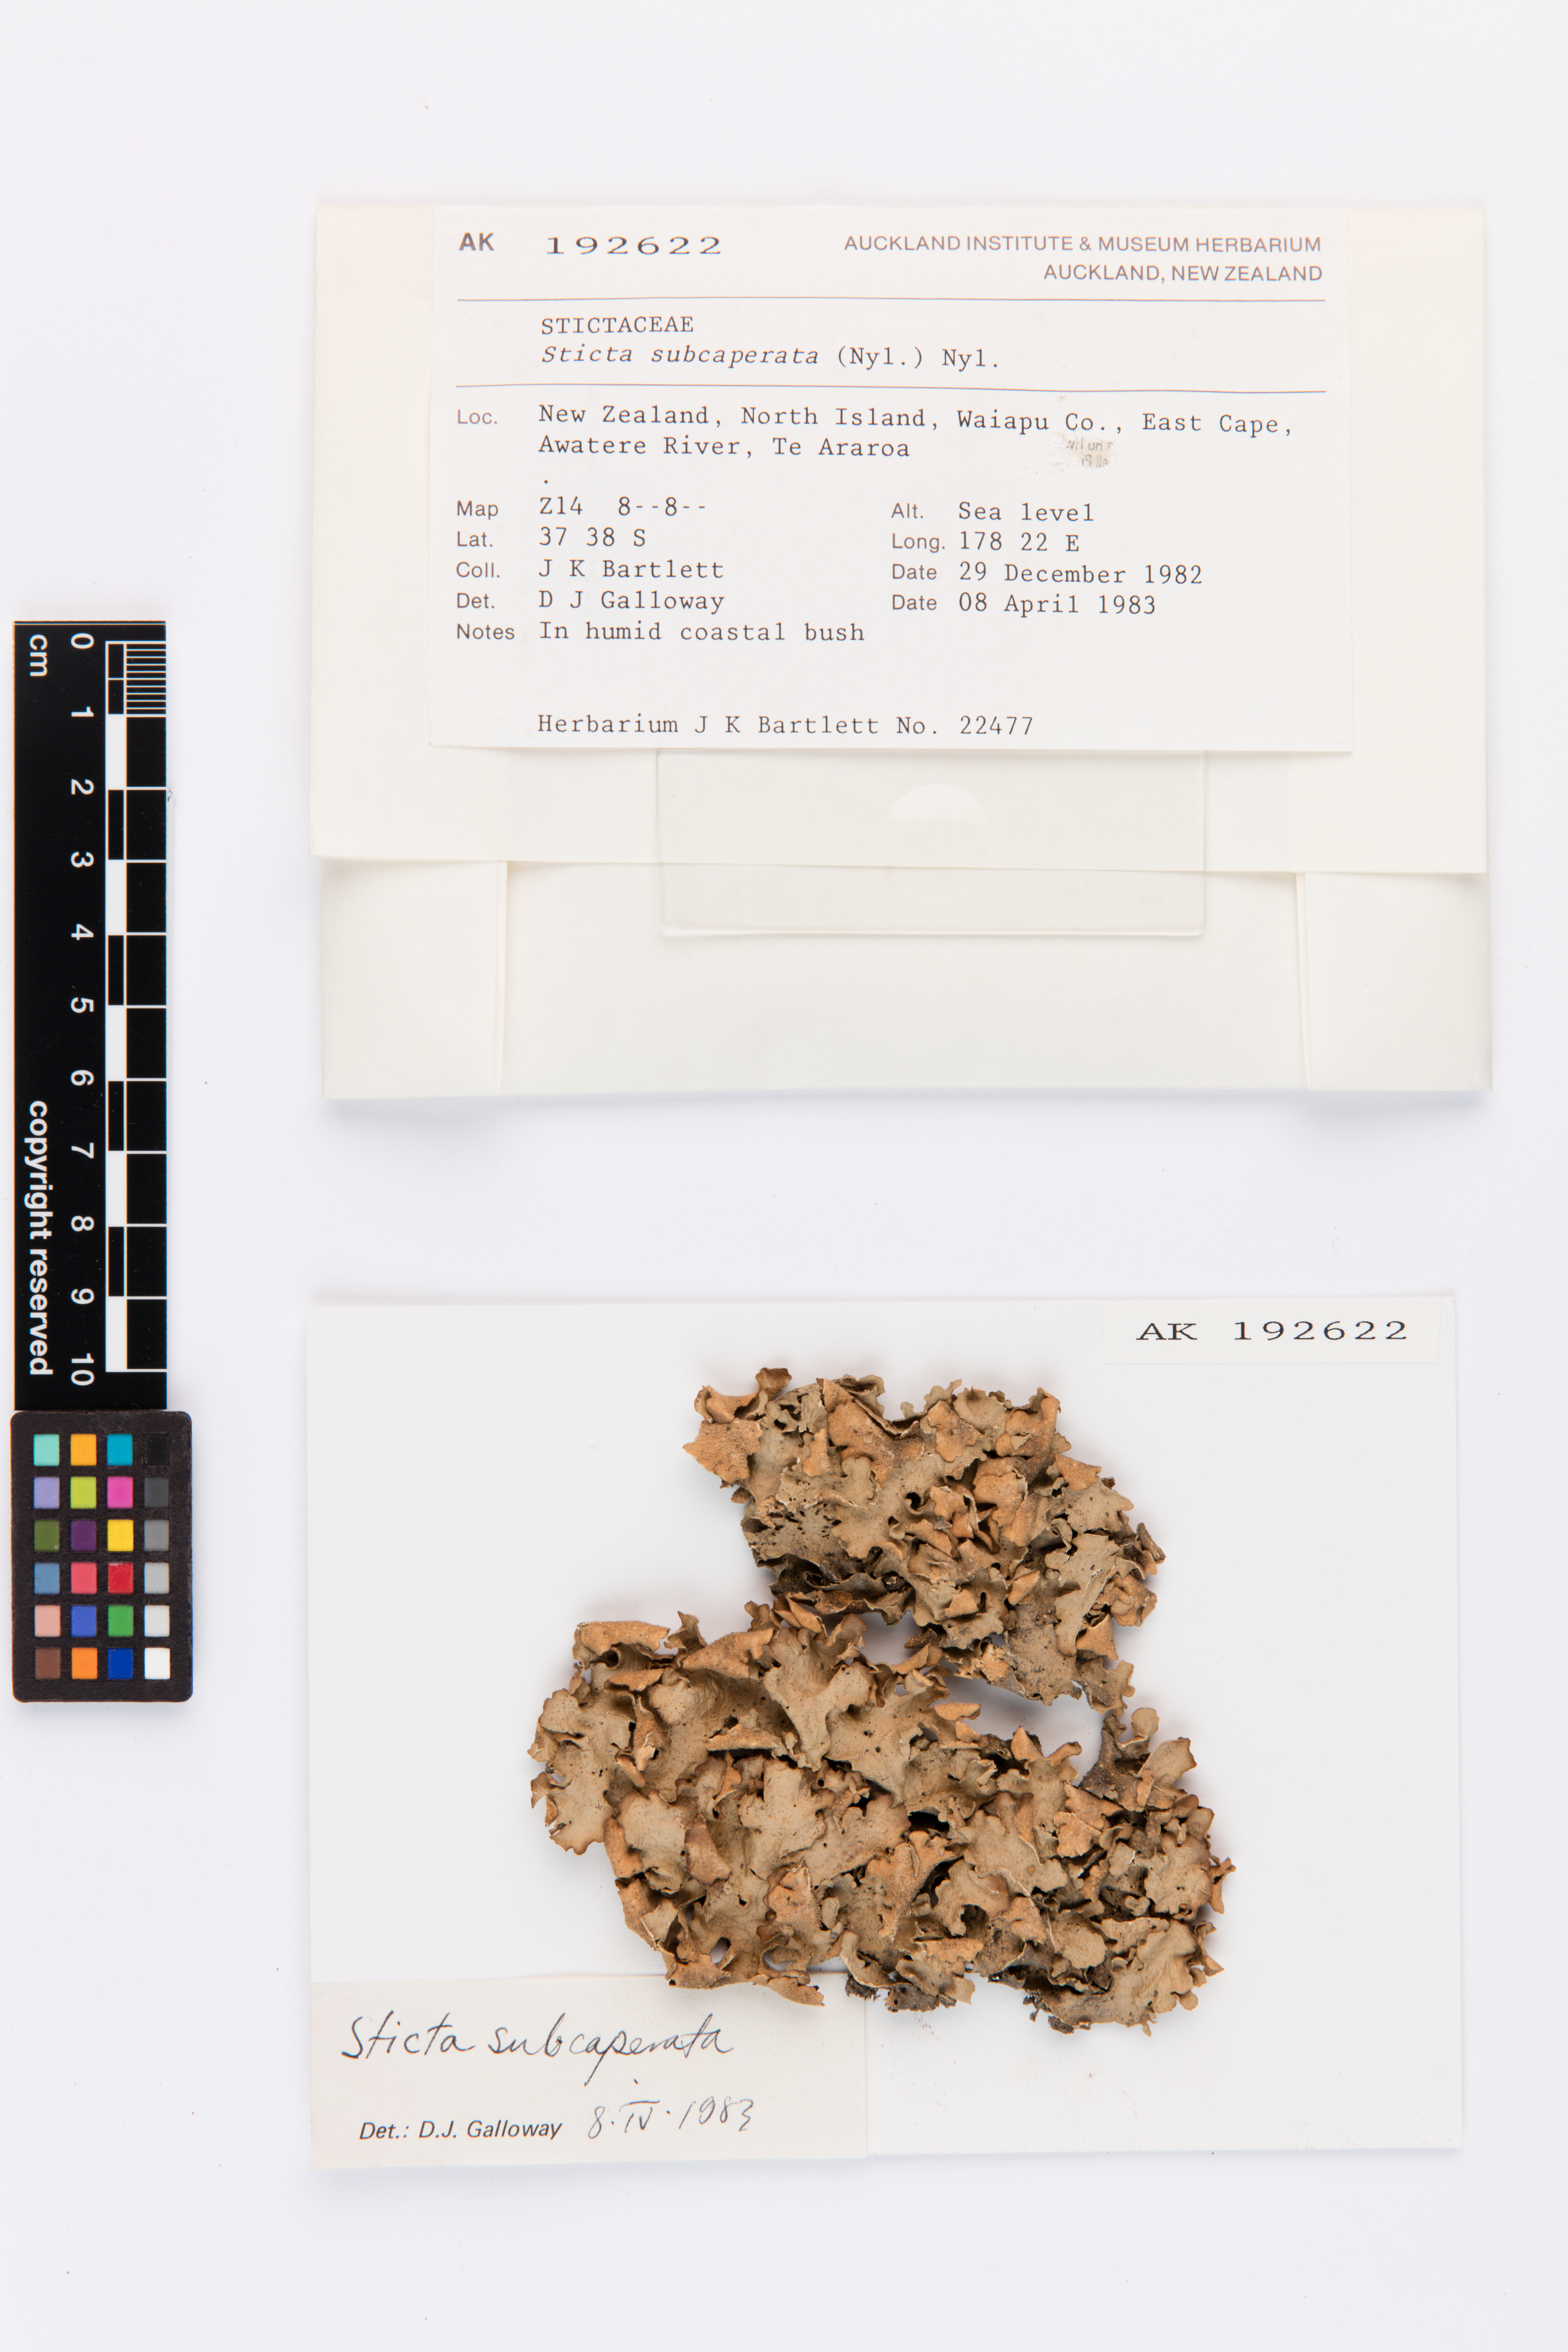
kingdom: Fungi
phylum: Ascomycota
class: Lecanoromycetes
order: Peltigerales
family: Lobariaceae
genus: Sticta
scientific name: Sticta subcaperata
